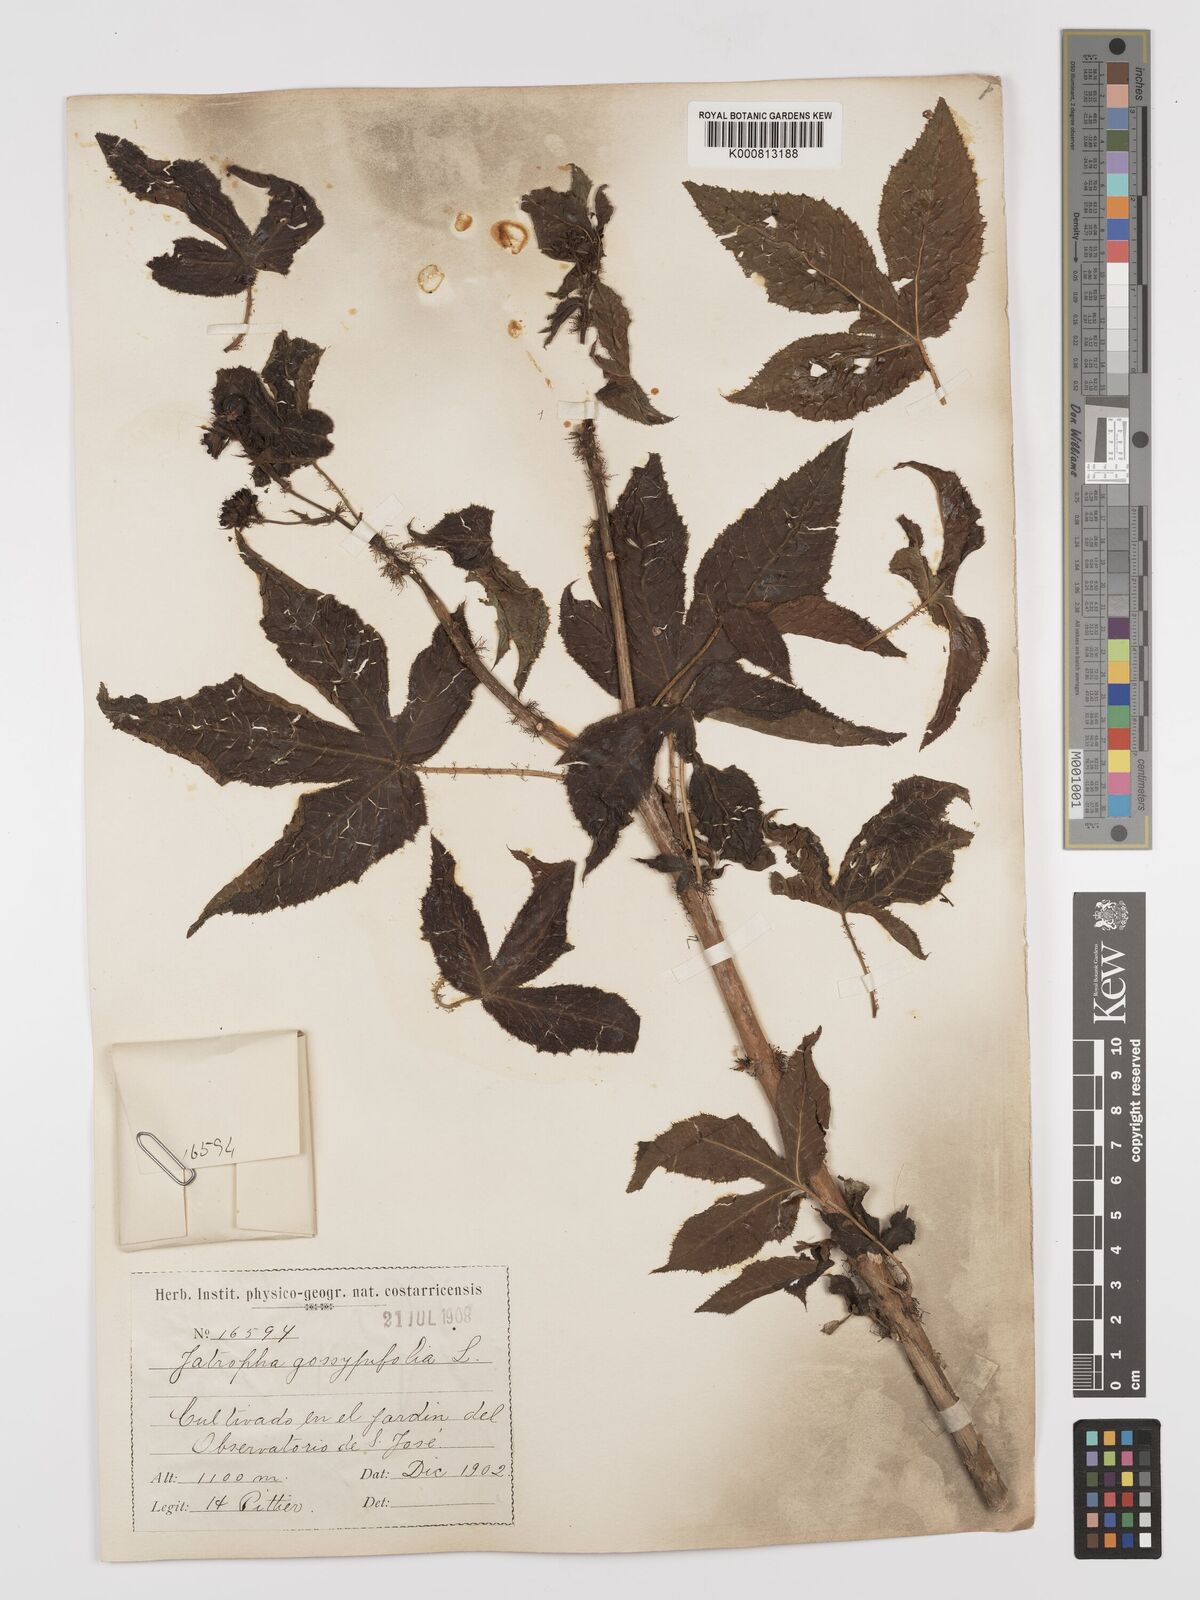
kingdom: Plantae
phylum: Tracheophyta
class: Magnoliopsida
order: Malpighiales
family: Euphorbiaceae
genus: Jatropha
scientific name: Jatropha gossypiifolia
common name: Bellyache bush
